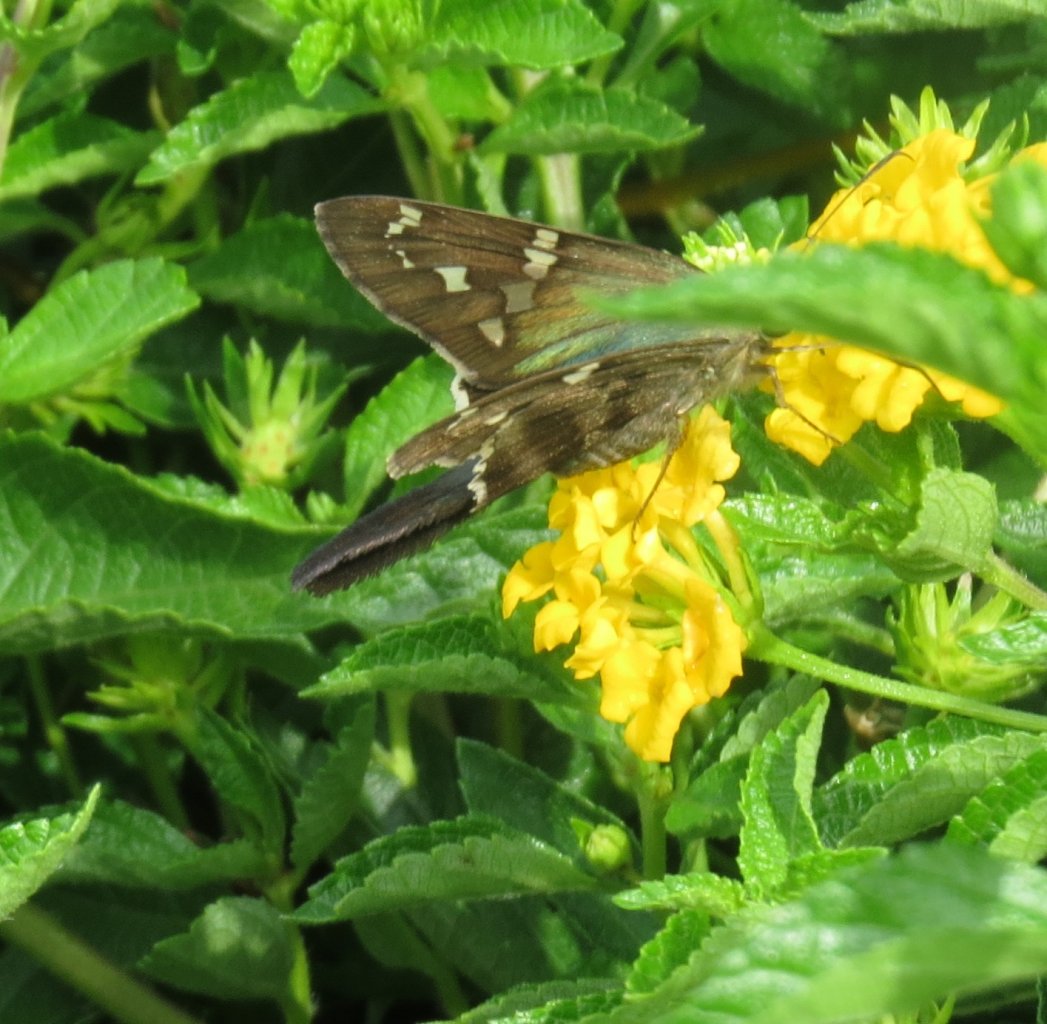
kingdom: Animalia
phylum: Arthropoda
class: Insecta
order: Lepidoptera
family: Hesperiidae
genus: Urbanus
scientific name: Urbanus proteus
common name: Long-tailed Skipper
